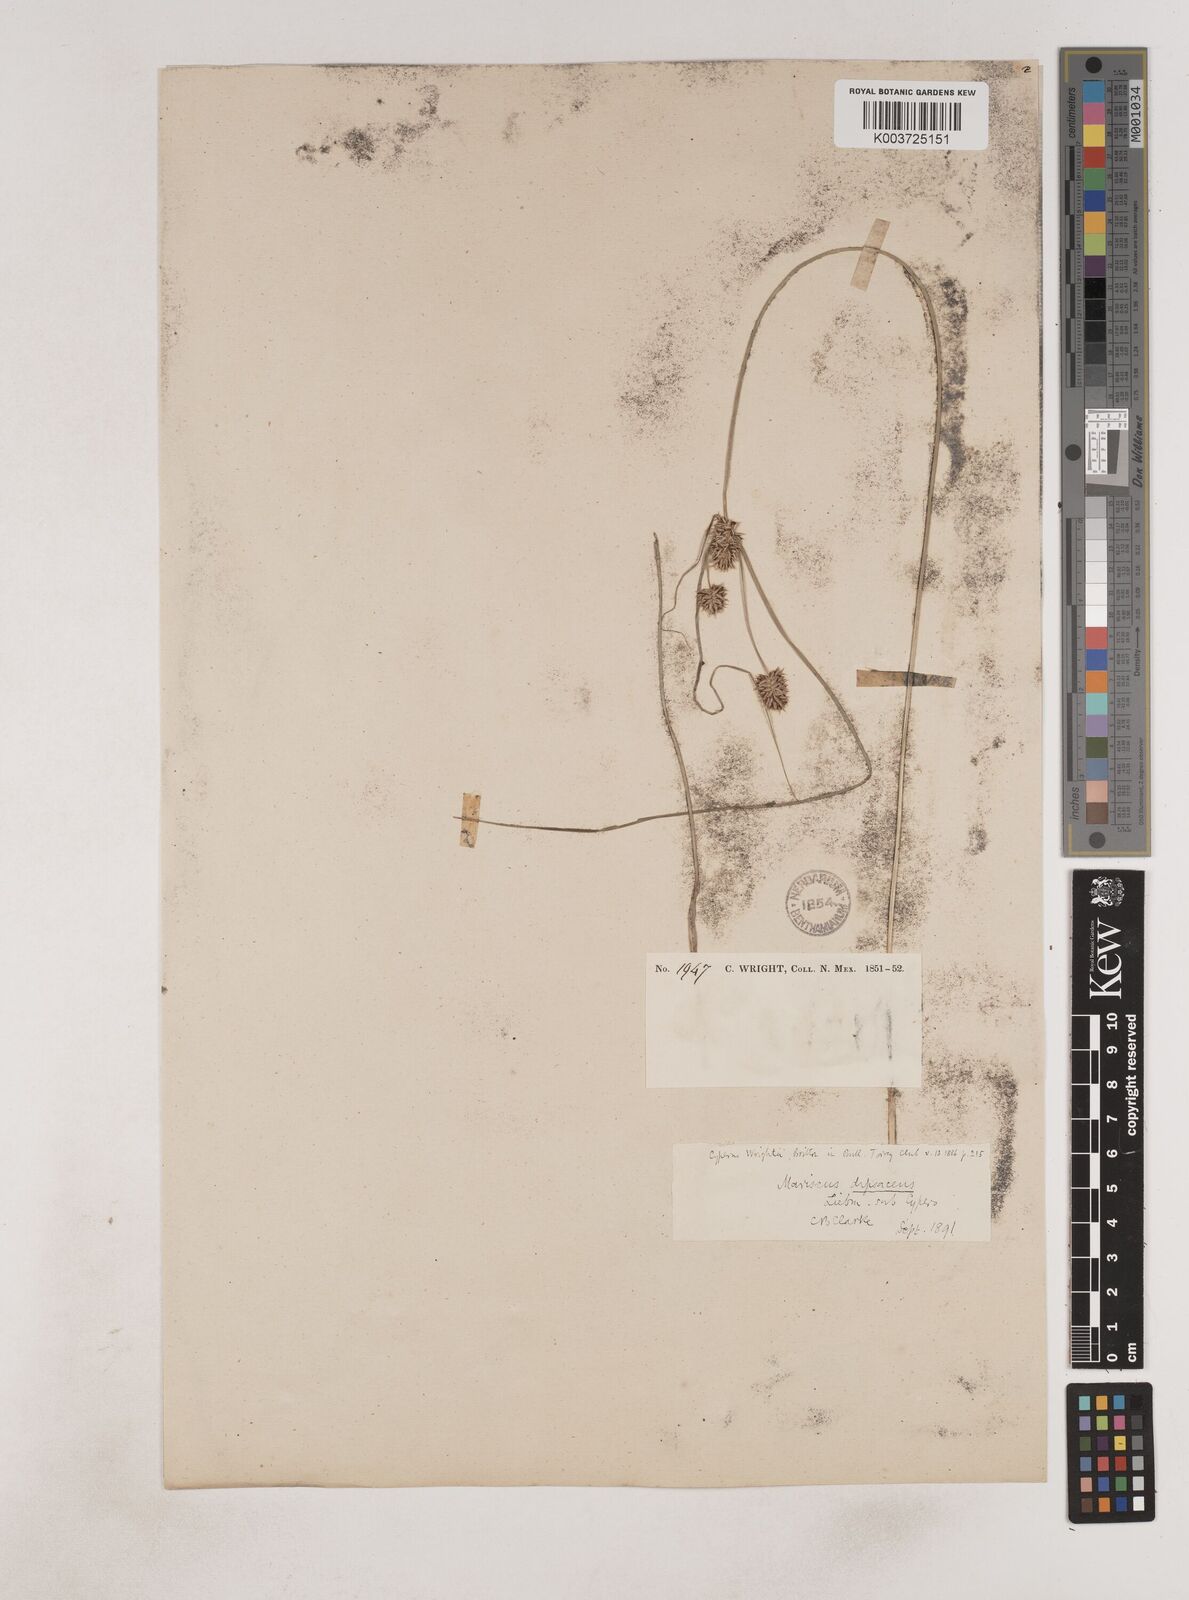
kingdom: Plantae
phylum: Tracheophyta
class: Liliopsida
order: Poales
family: Cyperaceae
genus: Cyperus
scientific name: Cyperus dipsaceus
